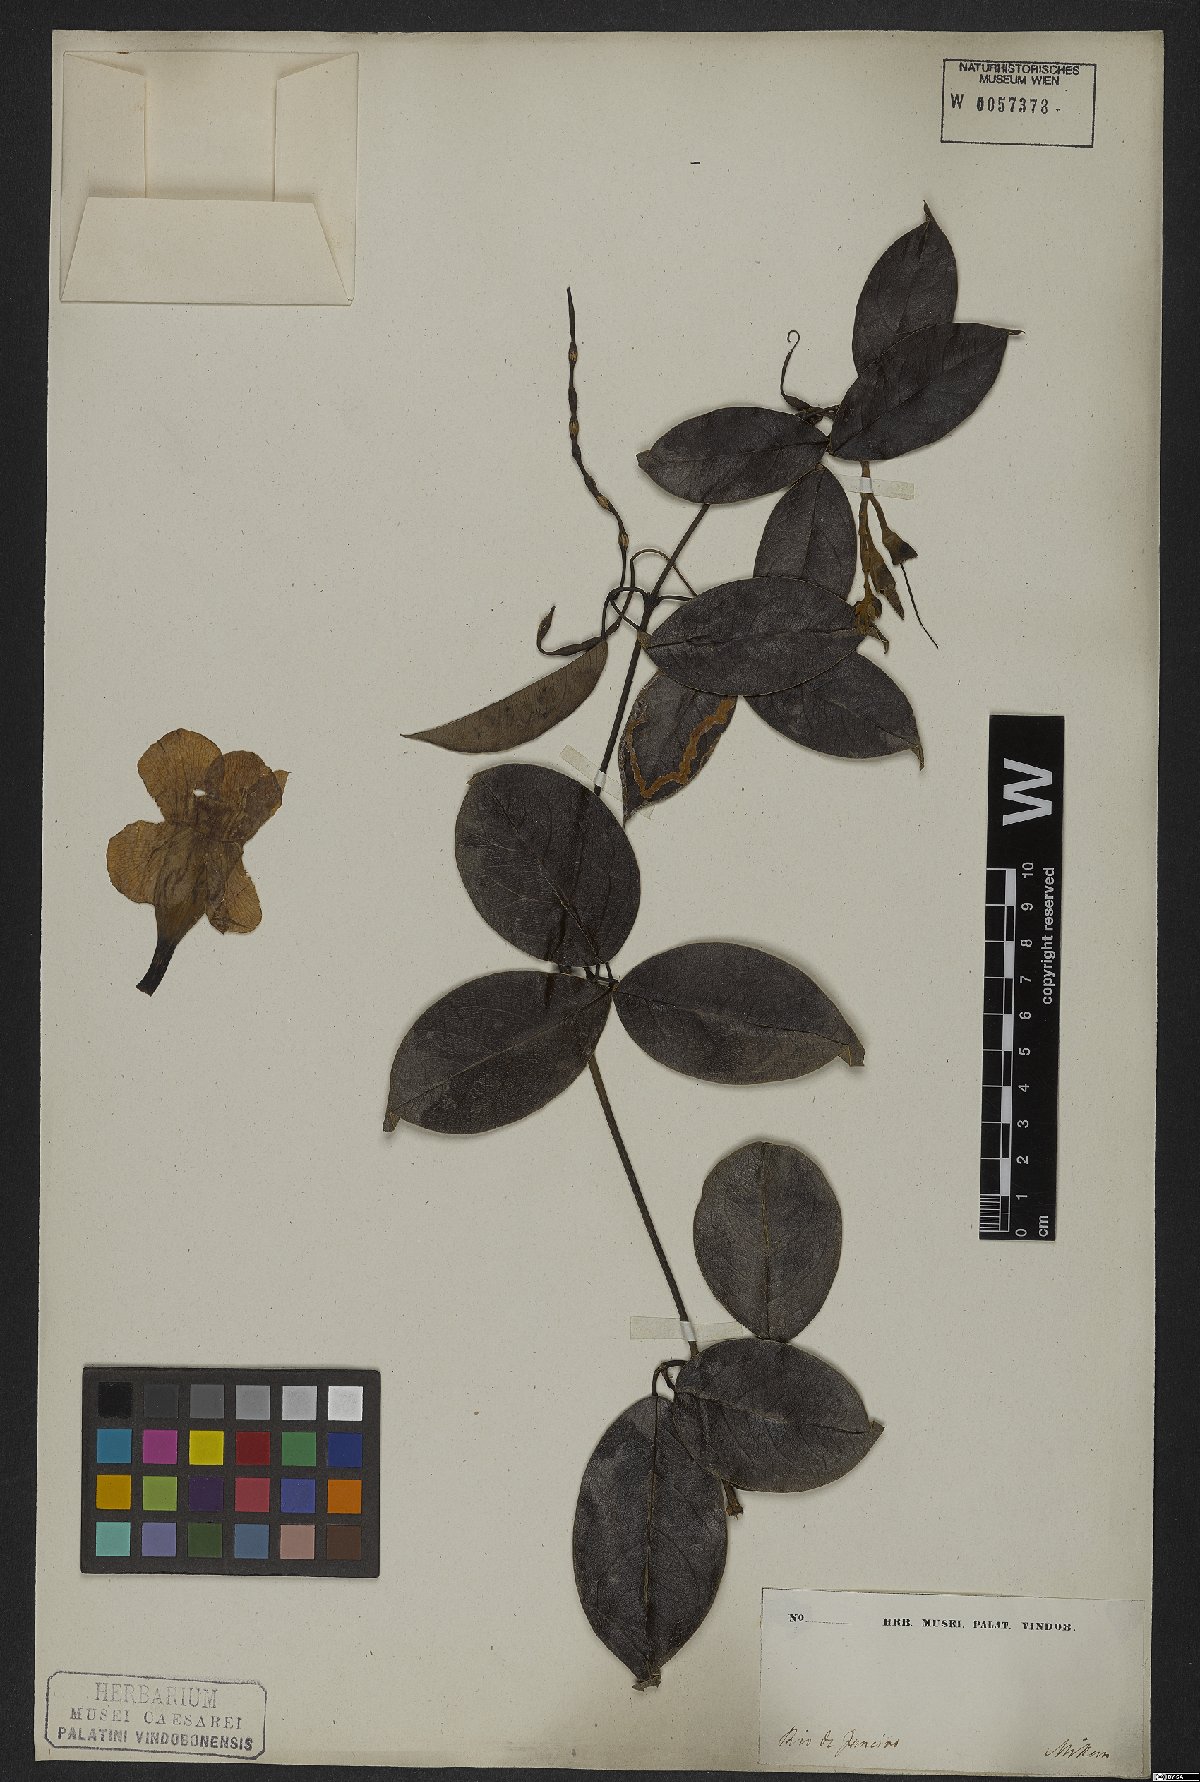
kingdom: Plantae
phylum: Tracheophyta
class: Magnoliopsida
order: Lamiales
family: Bignoniaceae
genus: Adenocalymma
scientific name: Adenocalymma marginatum
